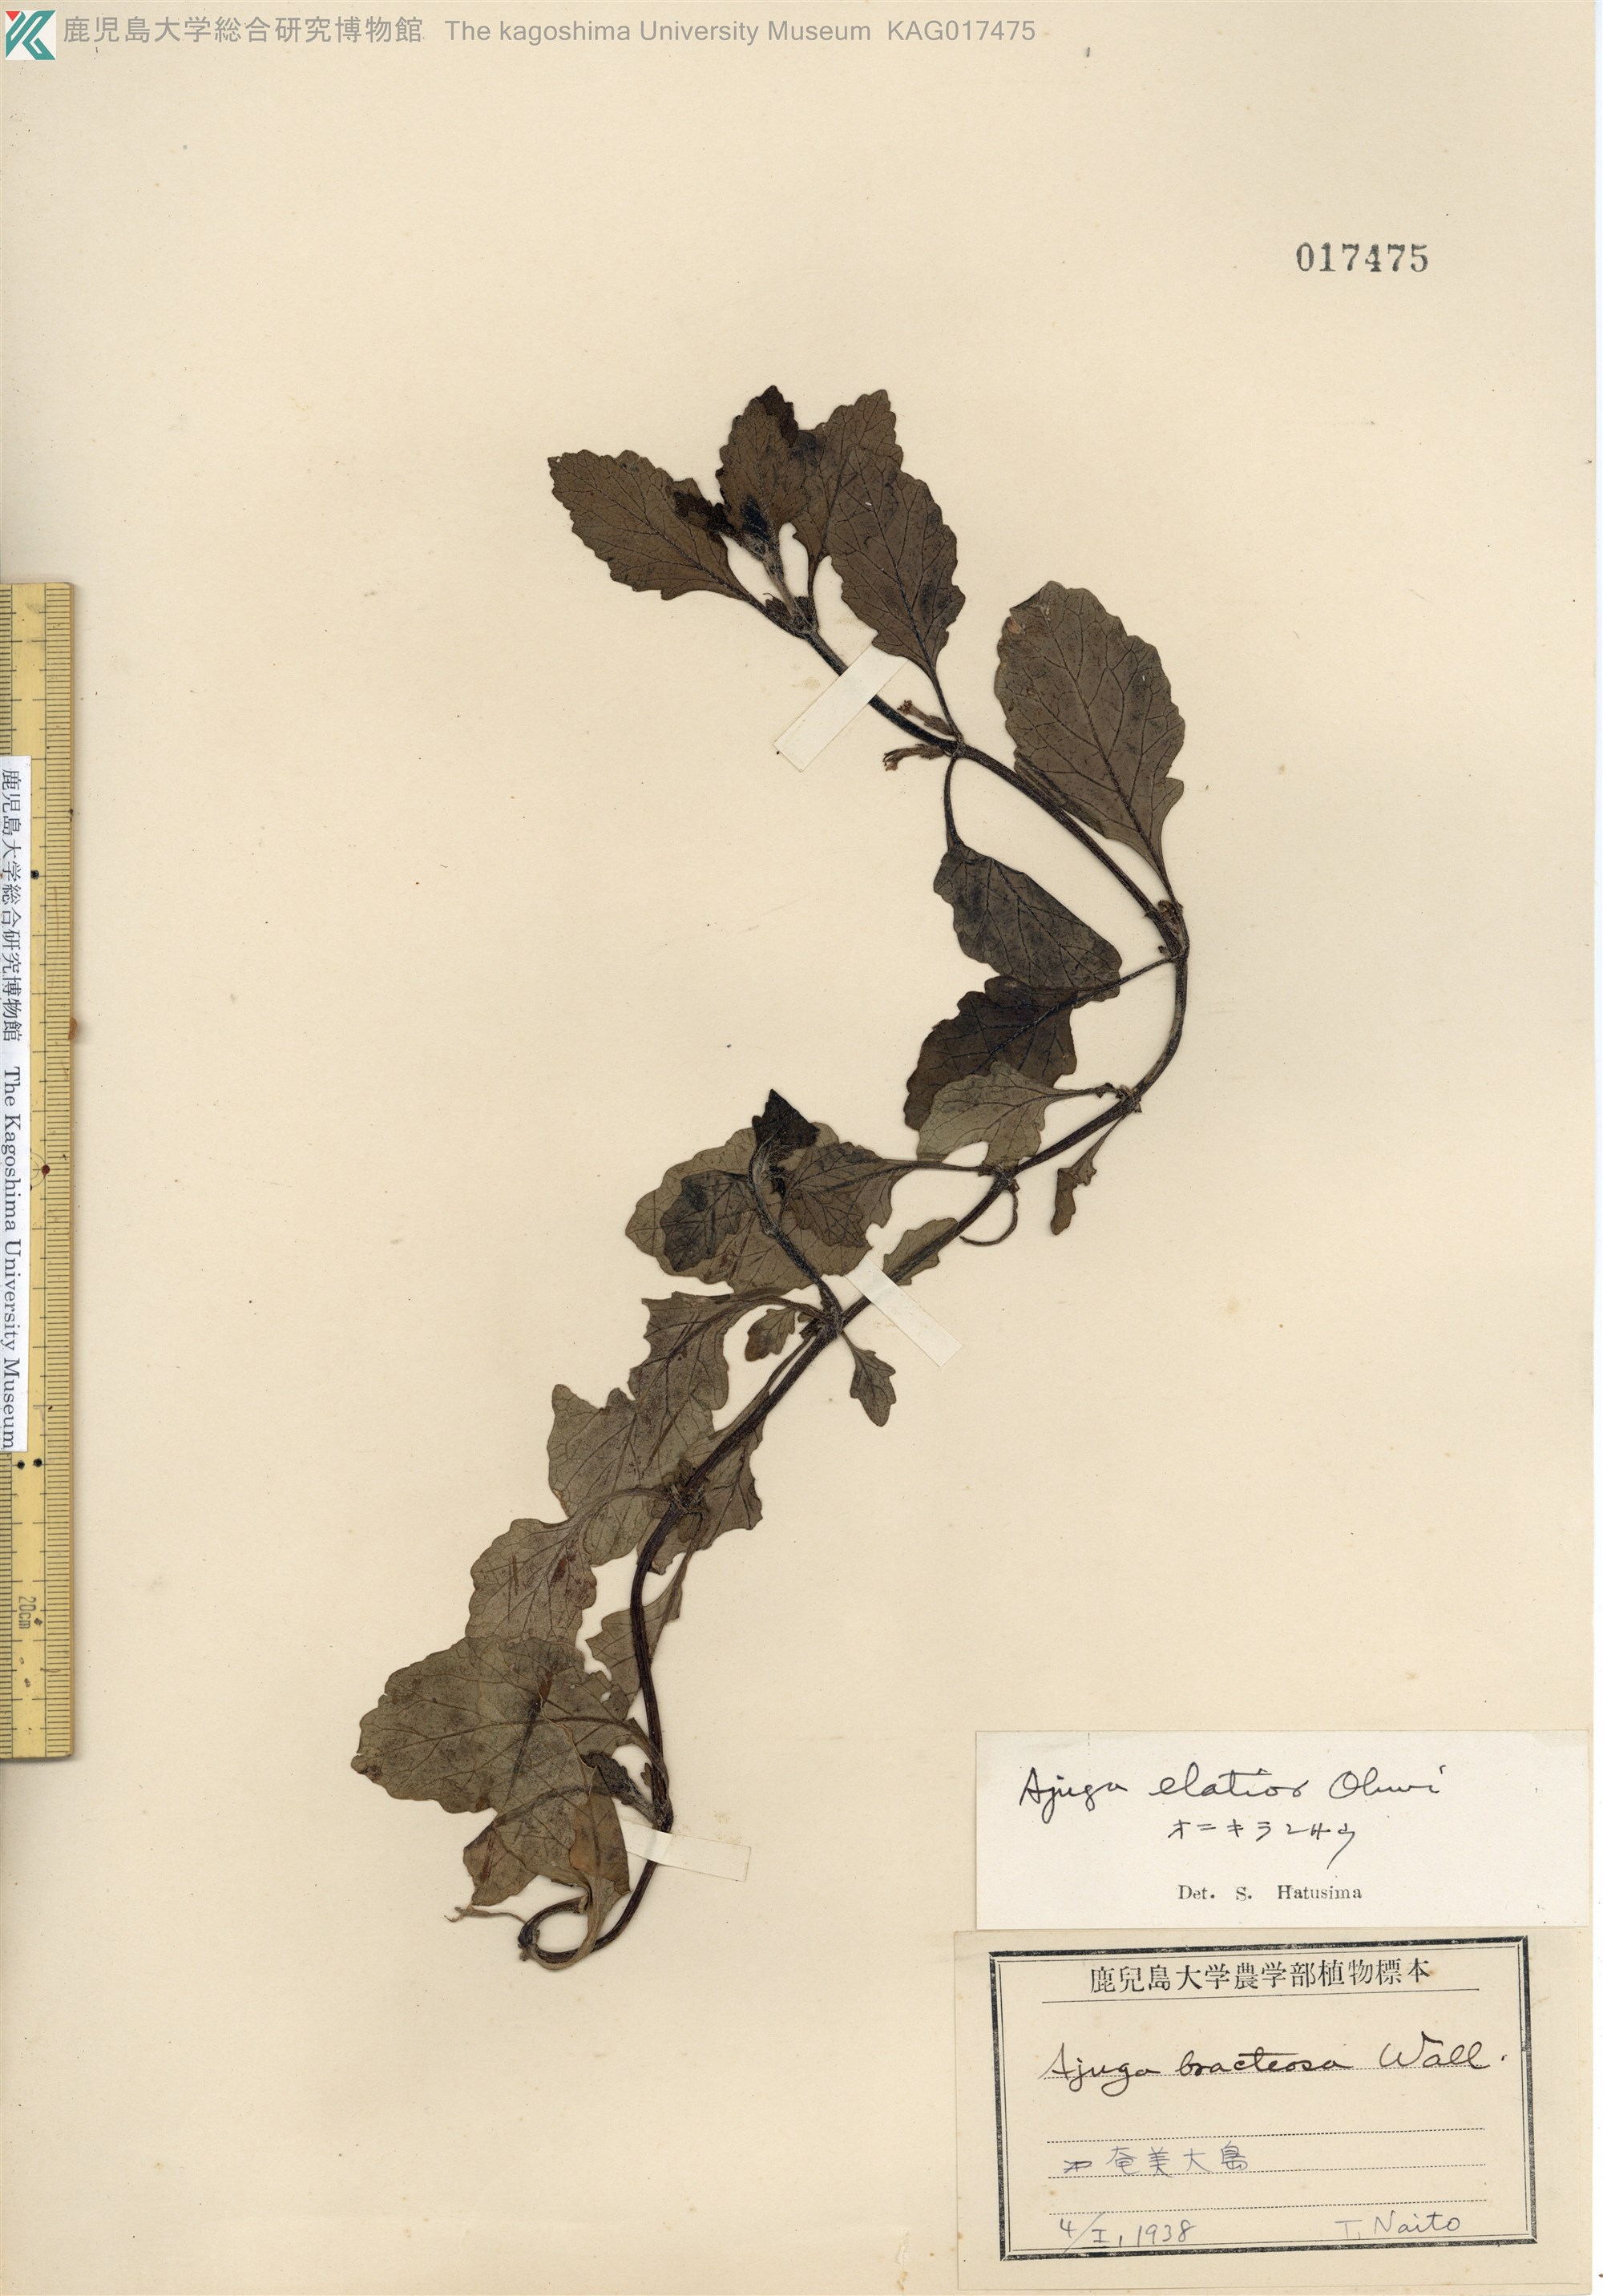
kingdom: Plantae
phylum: Tracheophyta
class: Magnoliopsida
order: Lamiales
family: Lamiaceae
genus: Ajuga
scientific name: Ajuga dictyocarpa
